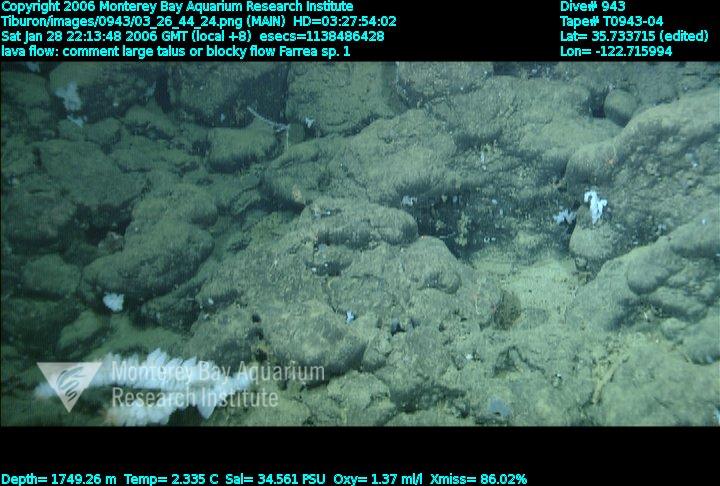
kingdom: Animalia
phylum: Porifera
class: Hexactinellida
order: Sceptrulophora
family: Farreidae
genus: Farrea
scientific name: Farrea truncata
